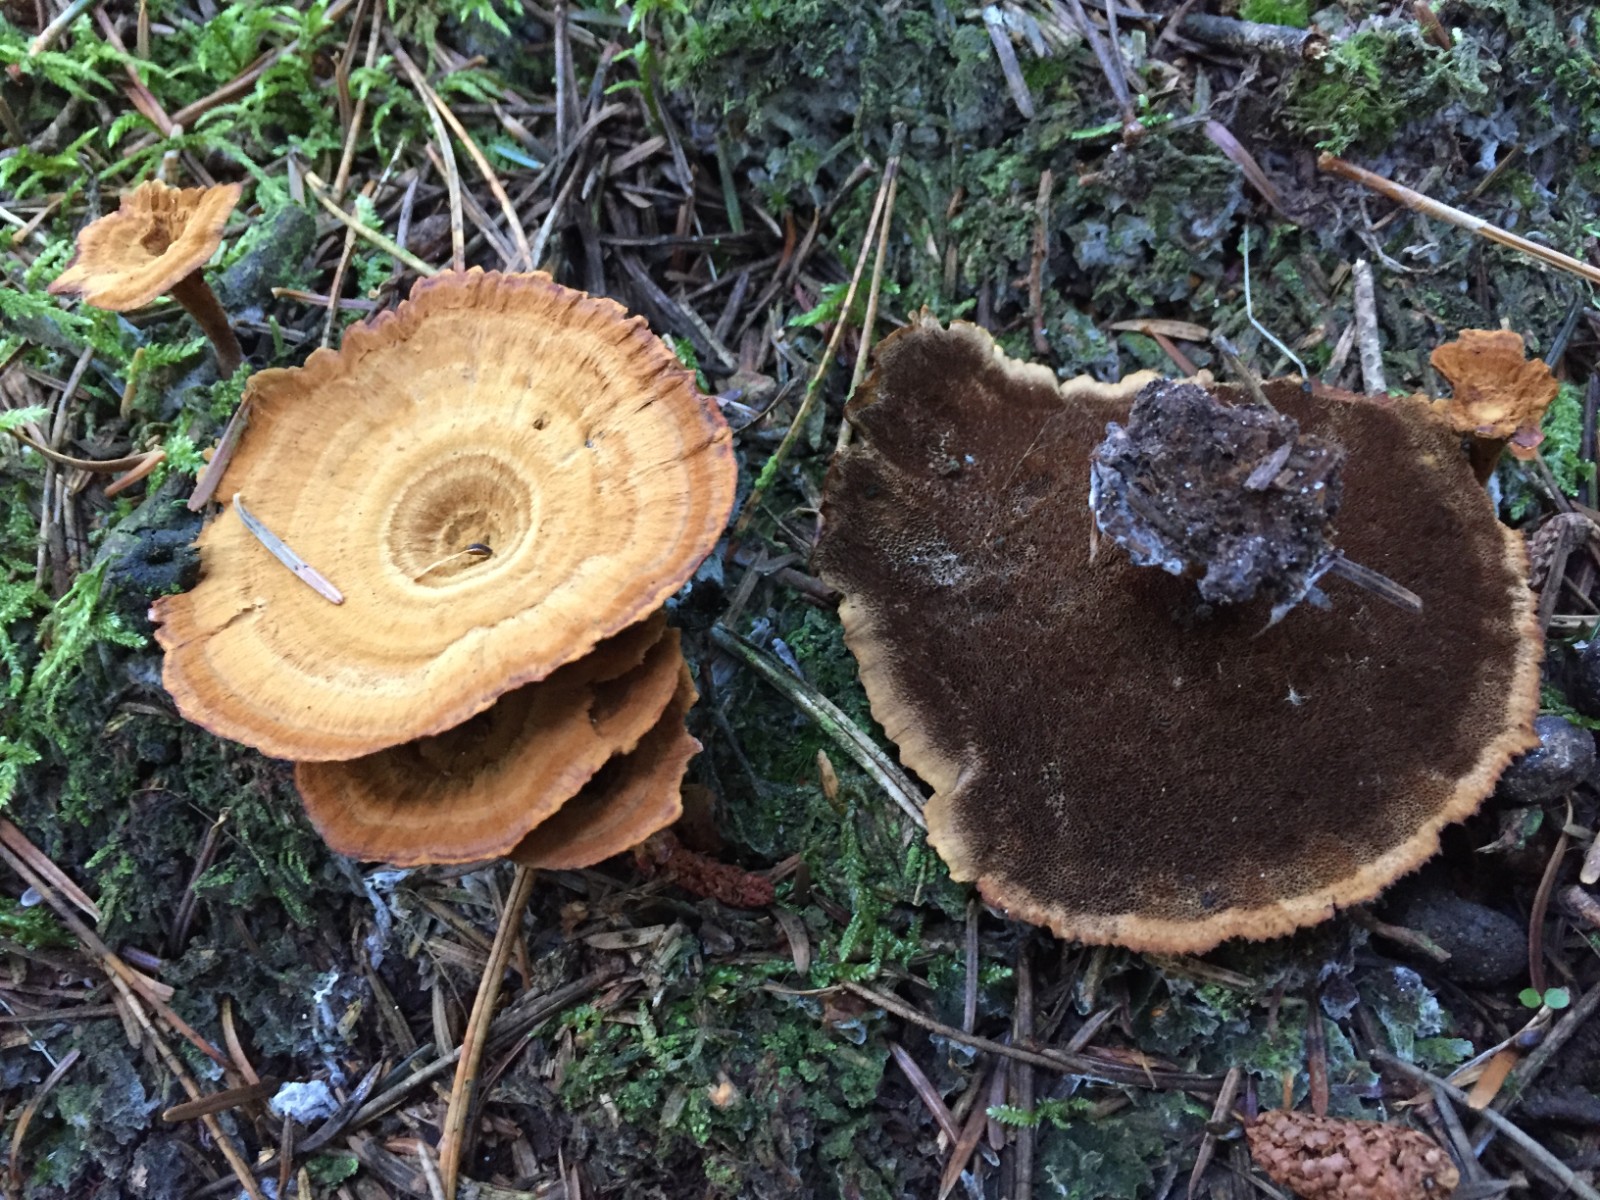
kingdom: Fungi
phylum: Basidiomycota
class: Agaricomycetes
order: Hymenochaetales
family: Hymenochaetaceae
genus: Coltricia
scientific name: Coltricia perennis
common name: almindelig sandporesvamp
